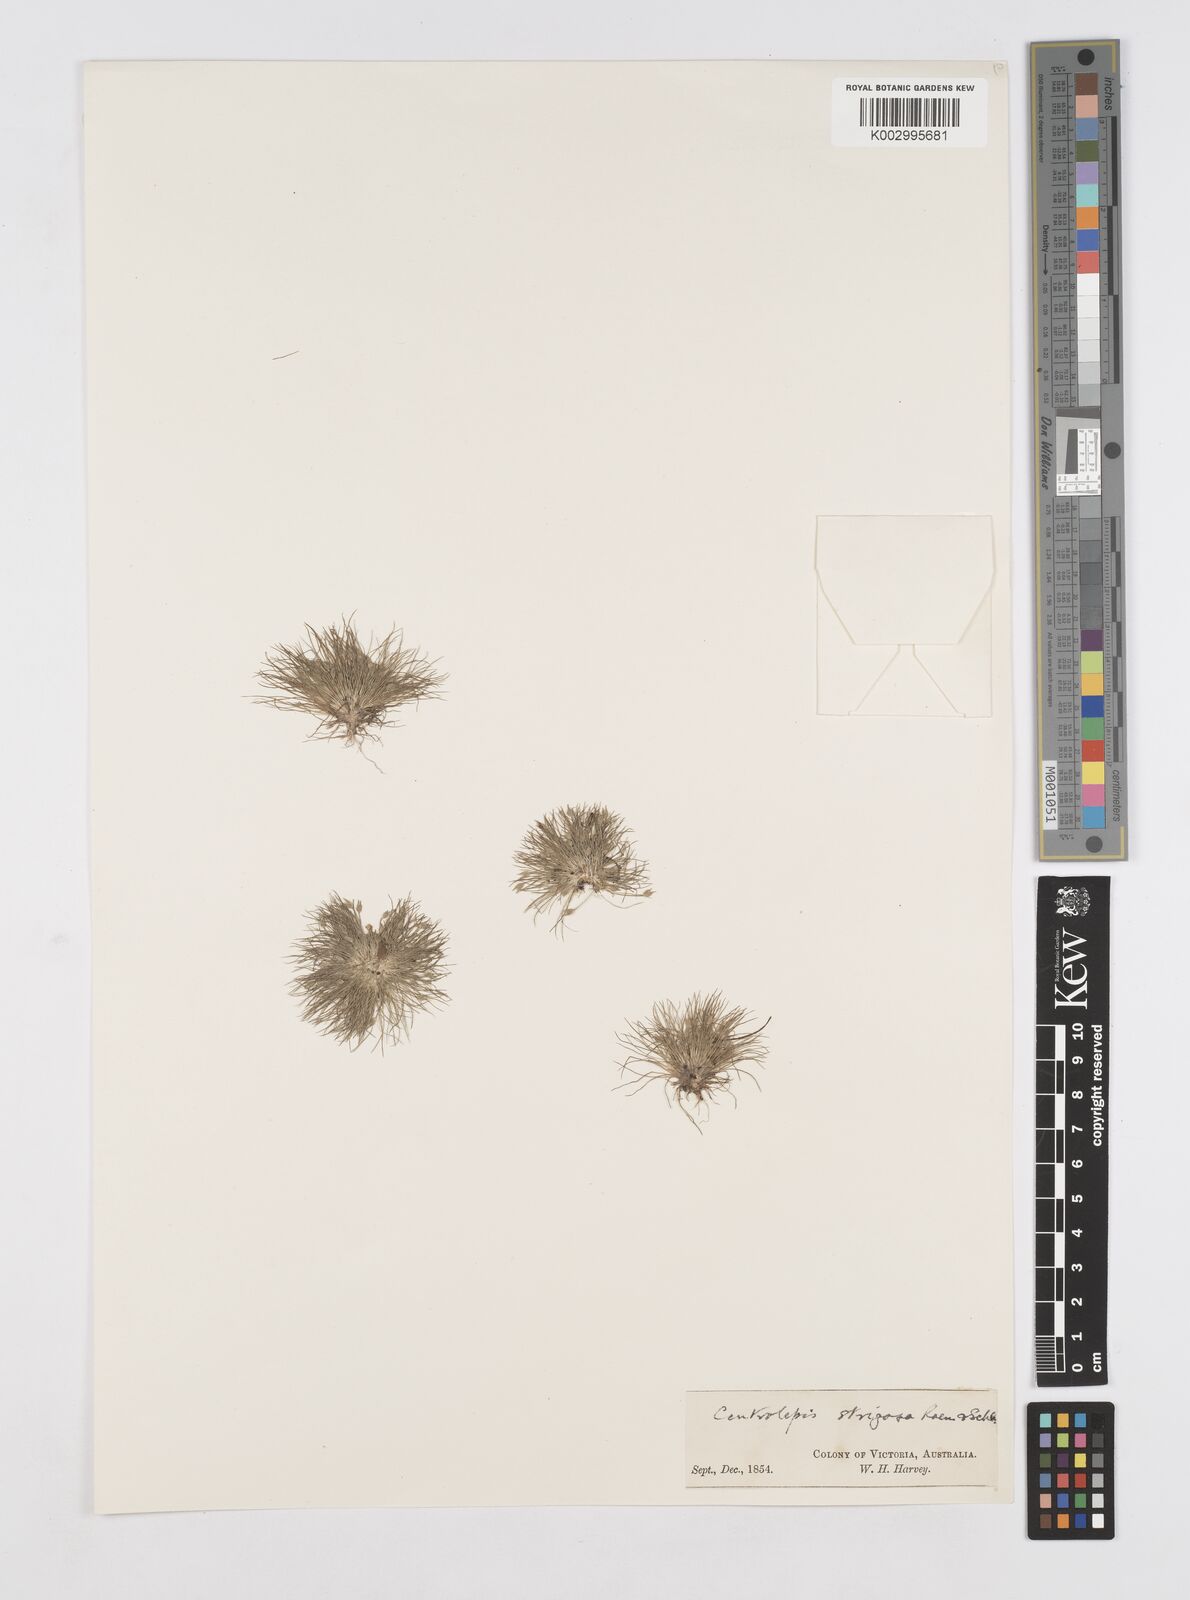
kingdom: Plantae
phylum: Tracheophyta
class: Liliopsida
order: Poales
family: Restionaceae
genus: Centrolepis
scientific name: Centrolepis strigosa
